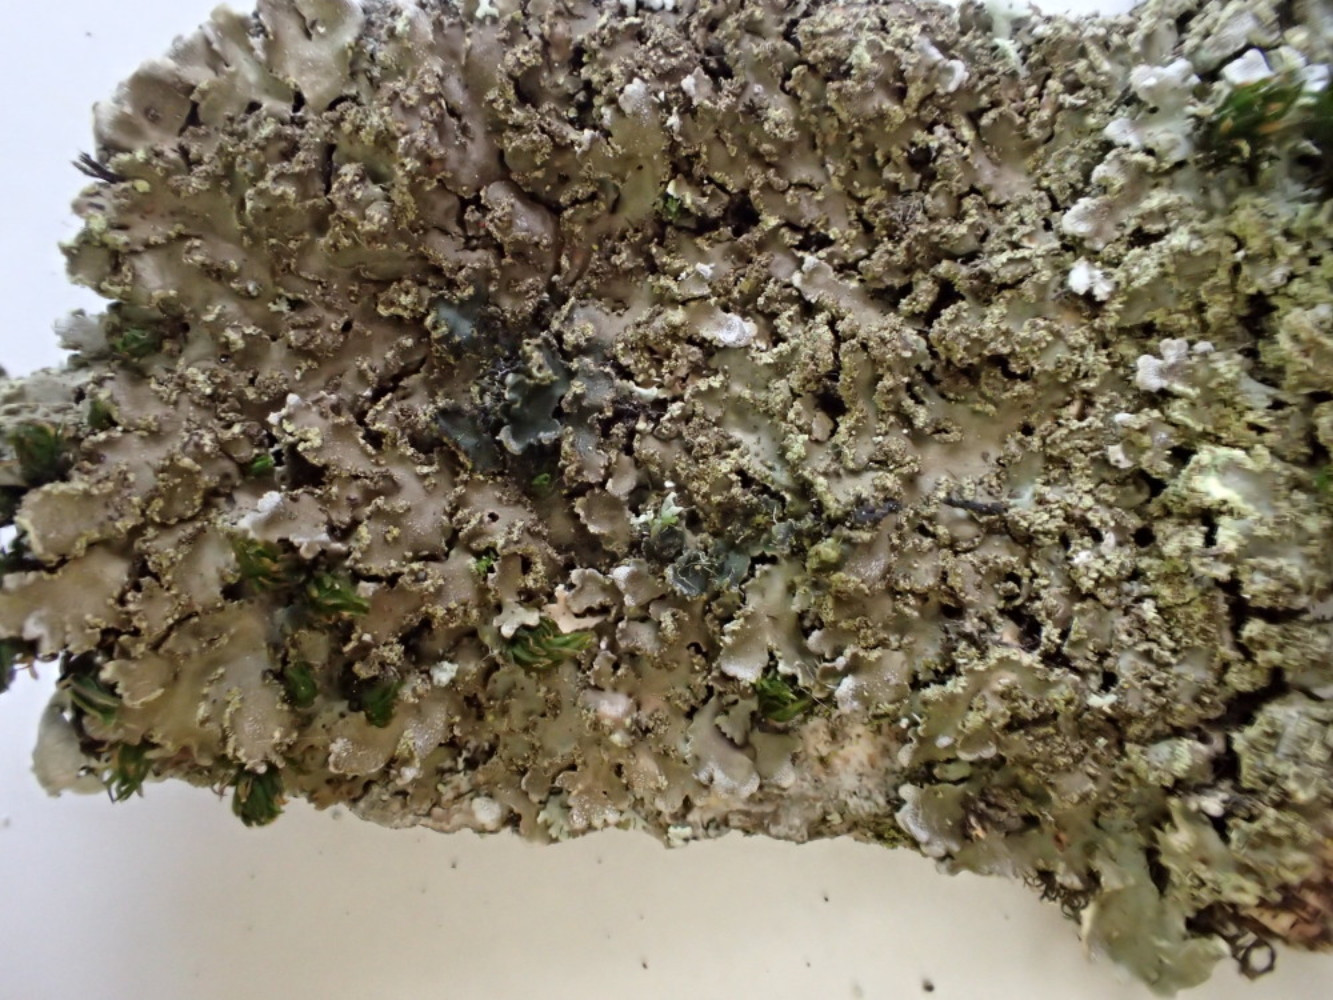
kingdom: Fungi
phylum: Ascomycota
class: Lecanoromycetes
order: Caliciales
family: Physciaceae
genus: Physconia
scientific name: Physconia perisidiosa
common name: liden dugrosetlav
